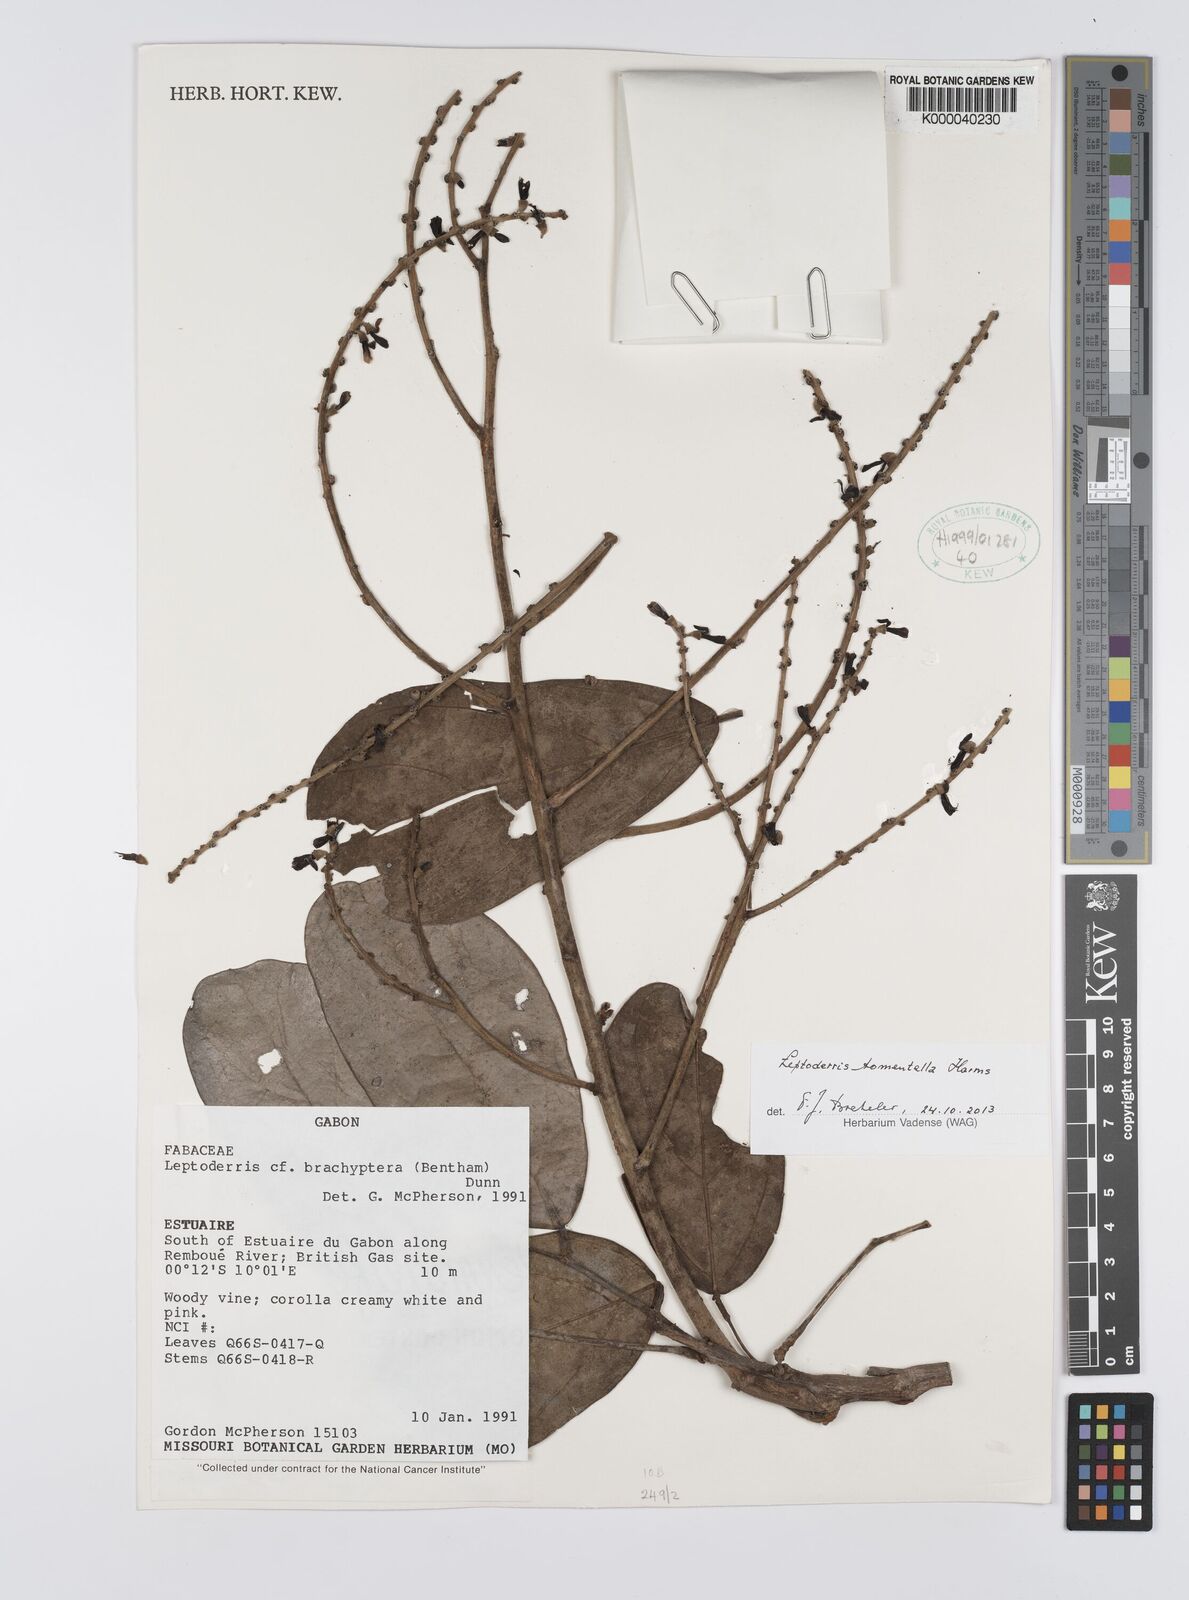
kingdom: Plantae
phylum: Tracheophyta
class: Magnoliopsida
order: Fabales
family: Fabaceae
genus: Leptoderris
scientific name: Leptoderris
